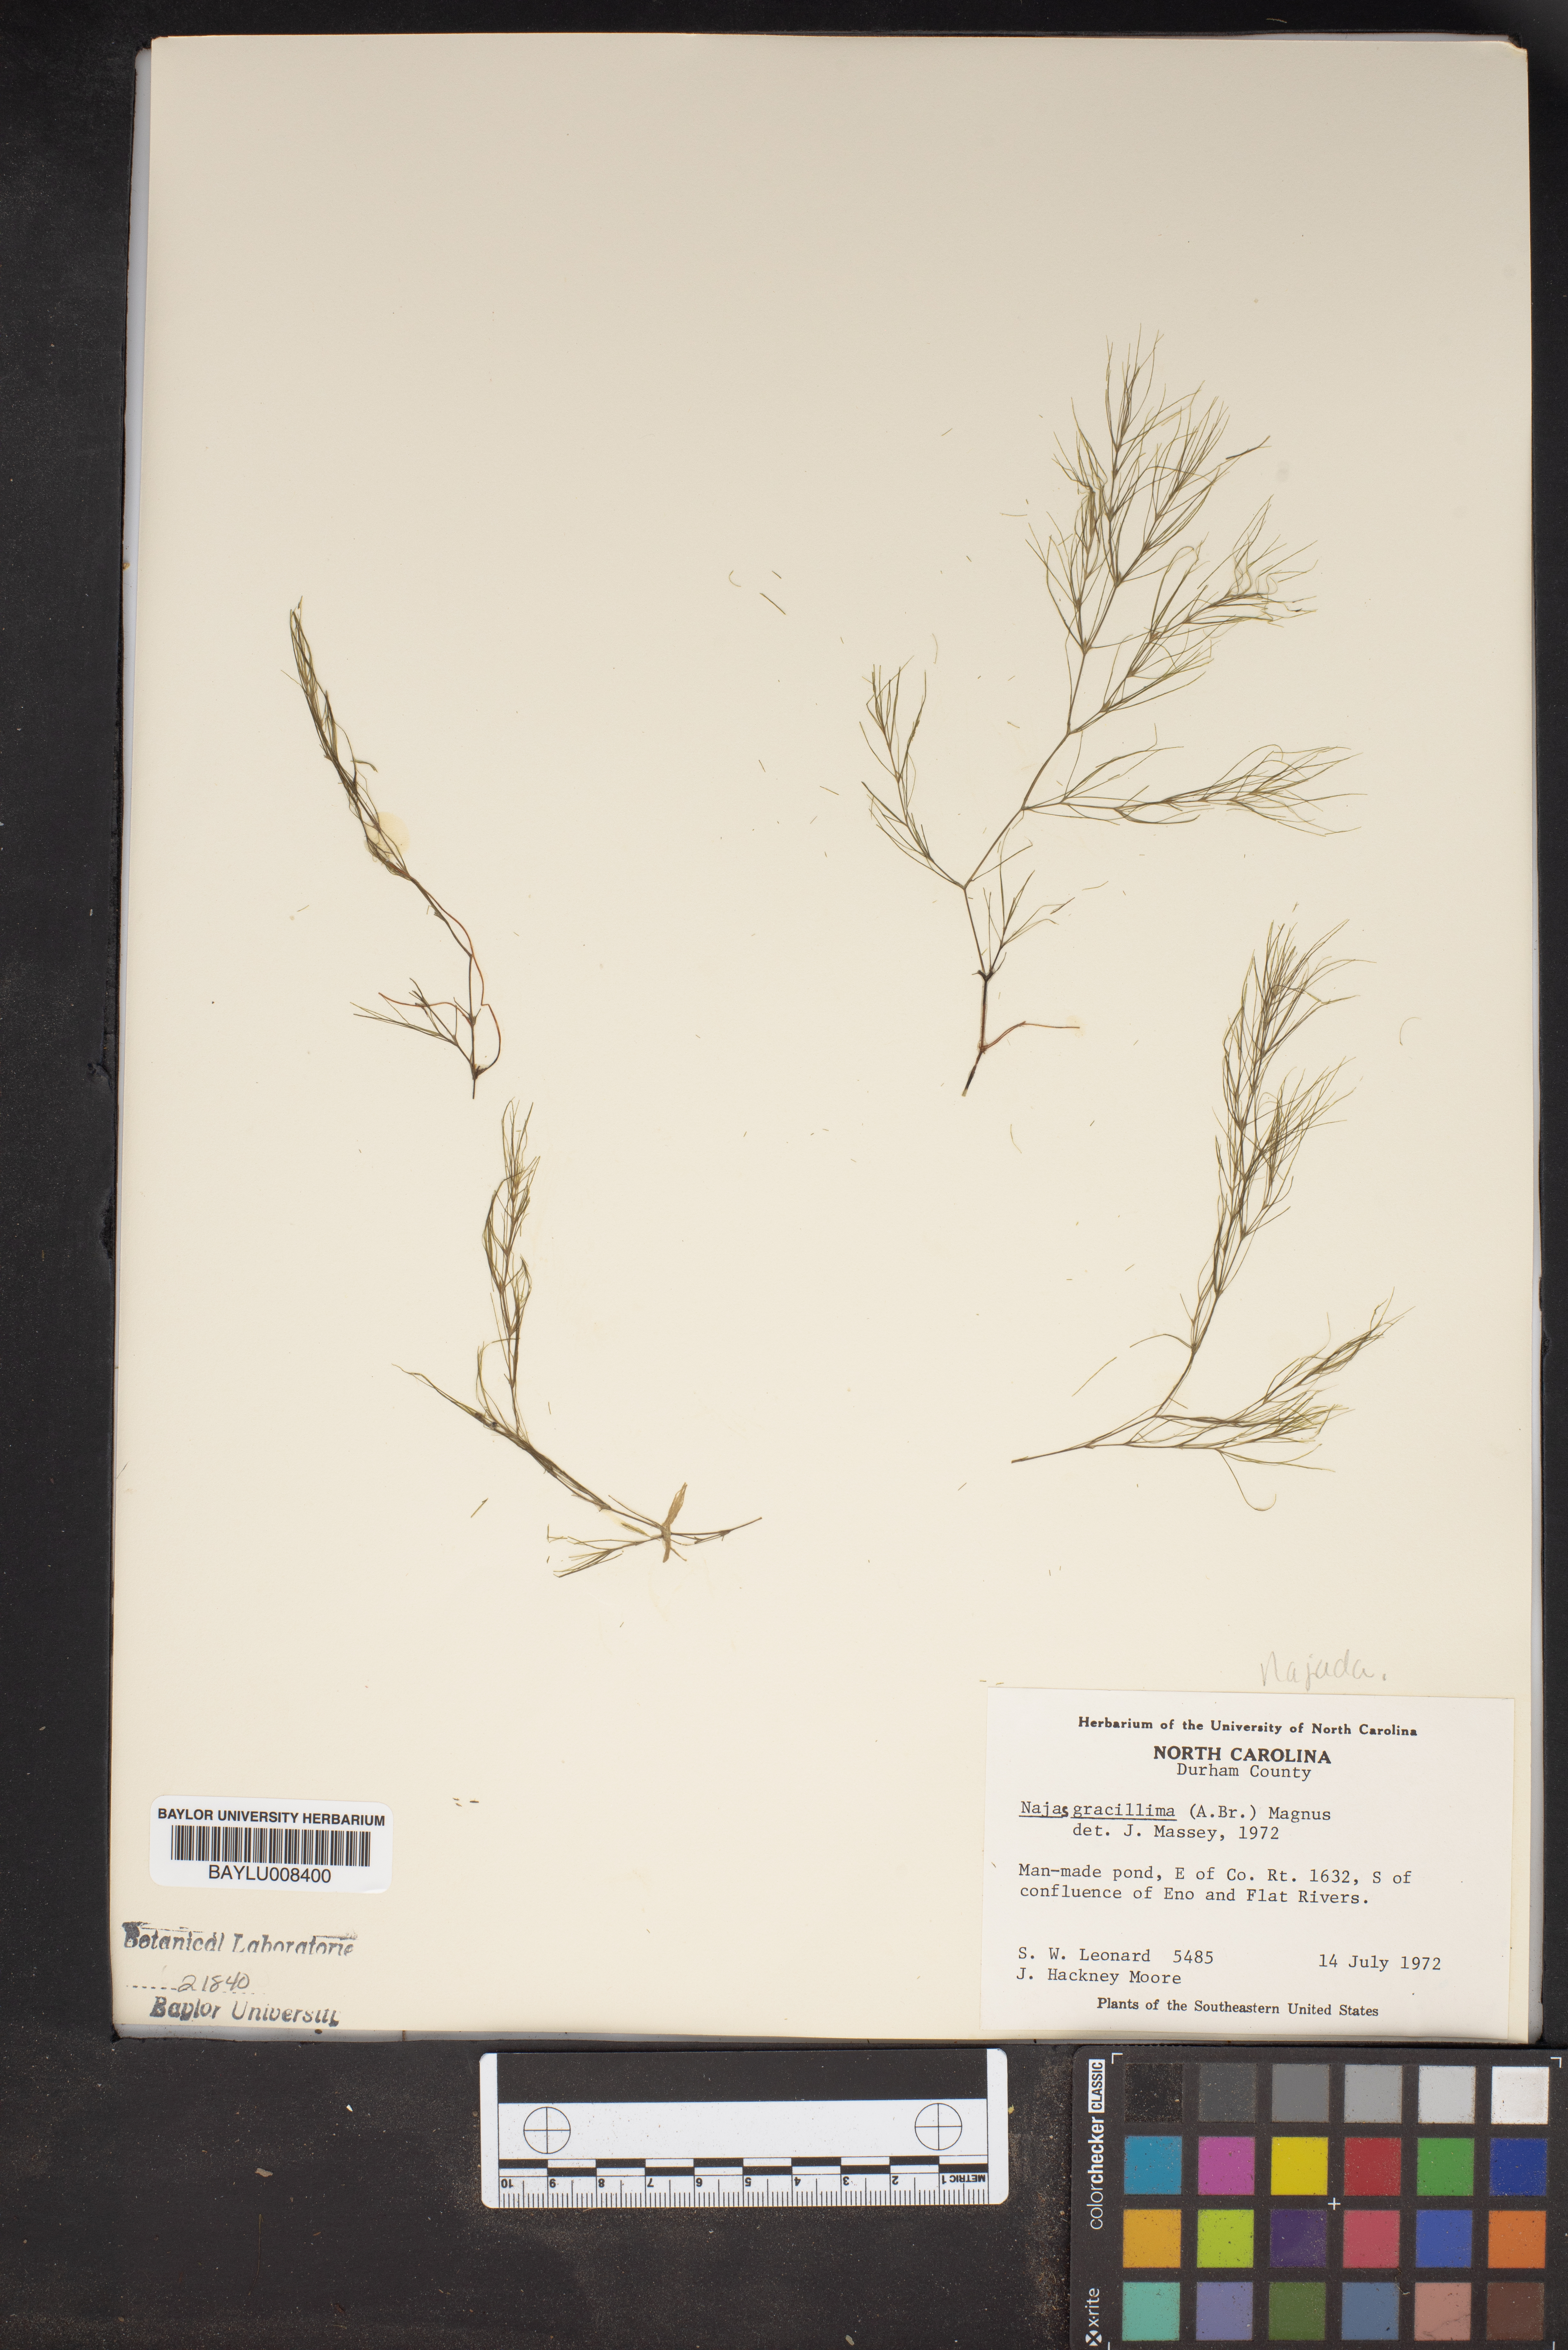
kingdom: Plantae
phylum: Tracheophyta
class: Liliopsida
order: Alismatales
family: Hydrocharitaceae
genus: Najas
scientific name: Najas gracillima
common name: Slender water-nymph
